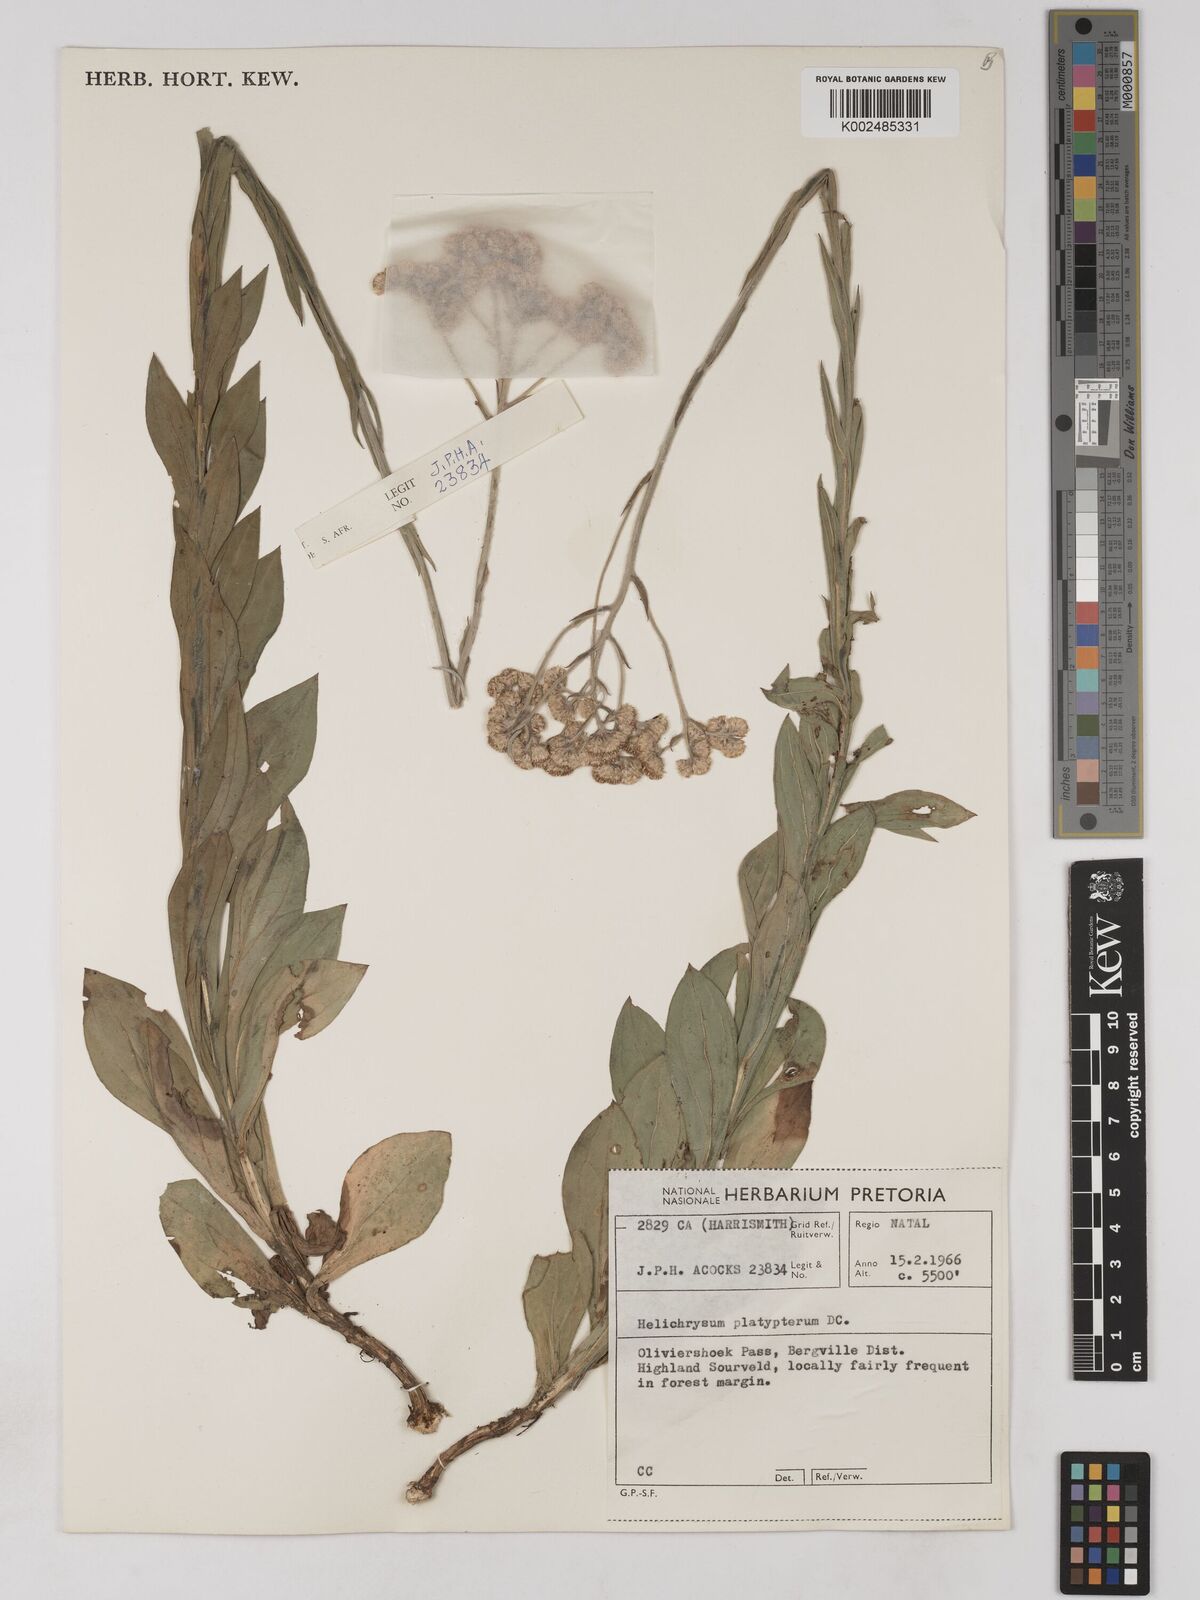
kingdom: Plantae
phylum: Tracheophyta
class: Magnoliopsida
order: Asterales
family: Asteraceae
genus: Helichrysum
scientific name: Helichrysum platypterum
